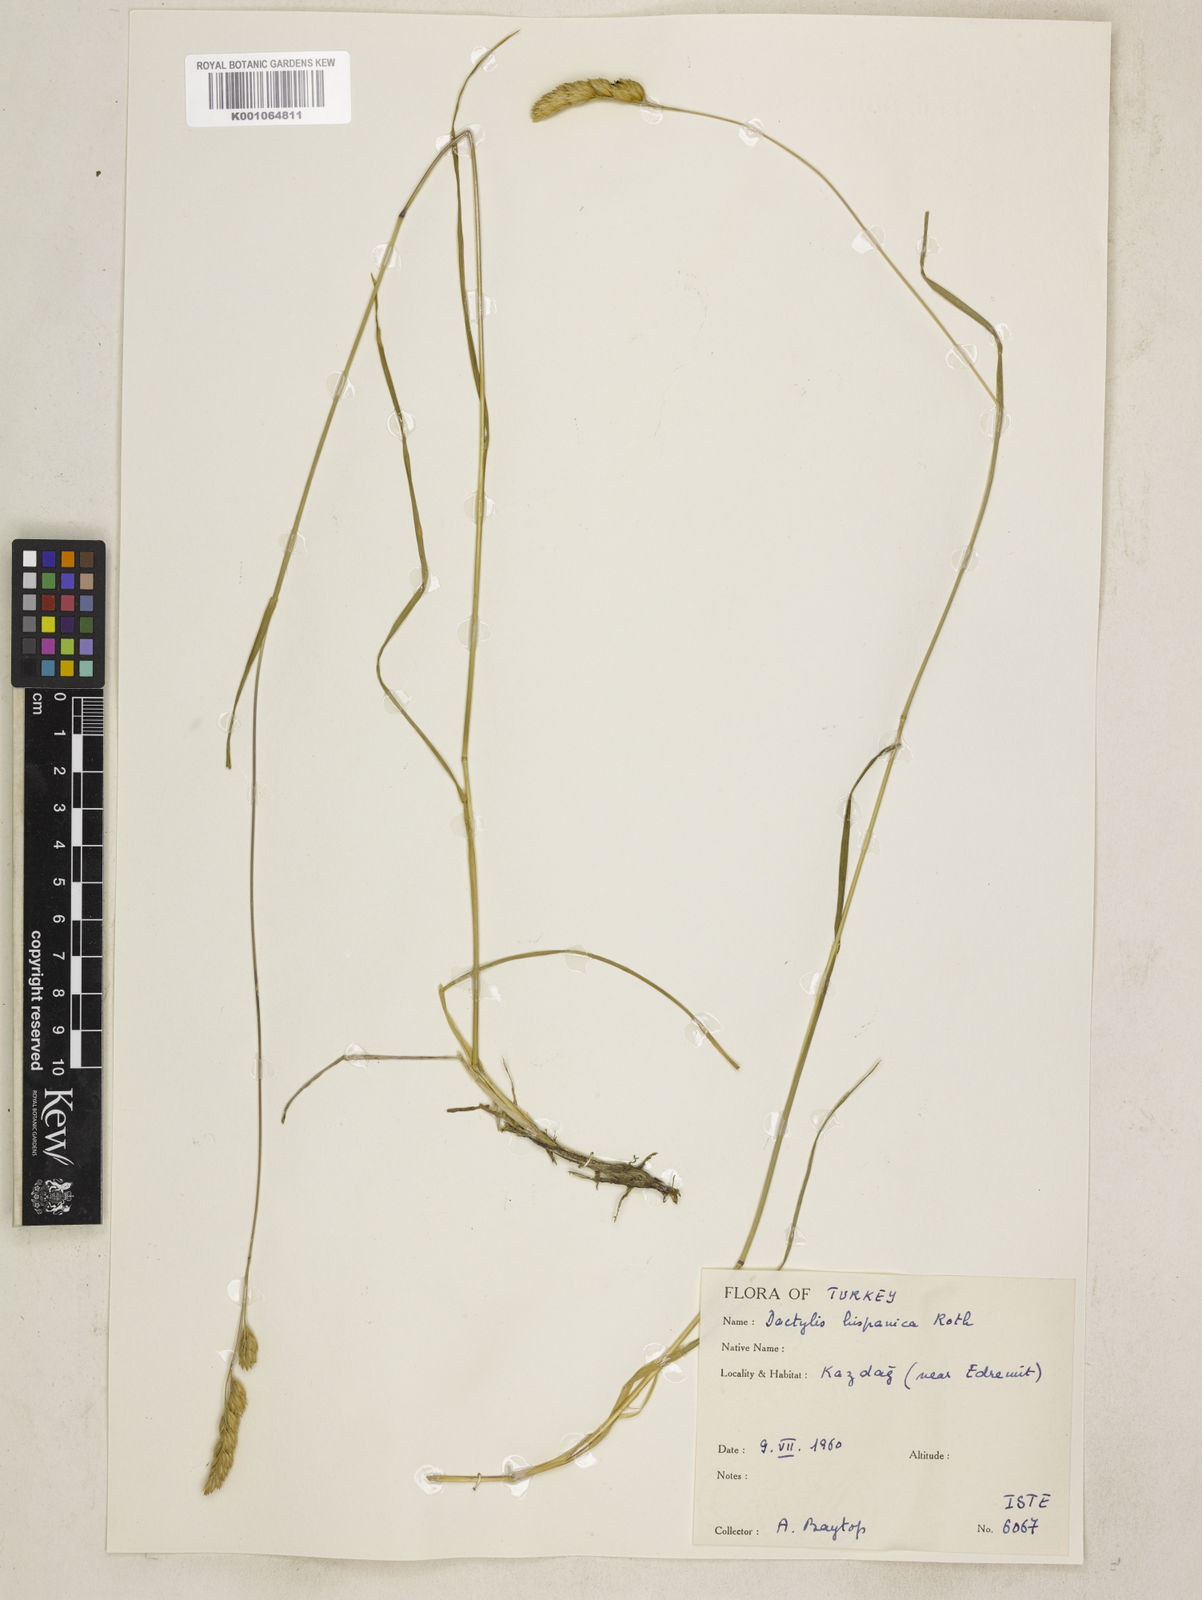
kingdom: Plantae
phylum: Tracheophyta
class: Liliopsida
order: Poales
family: Poaceae
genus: Dactylis
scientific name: Dactylis glomerata
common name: Orchardgrass
